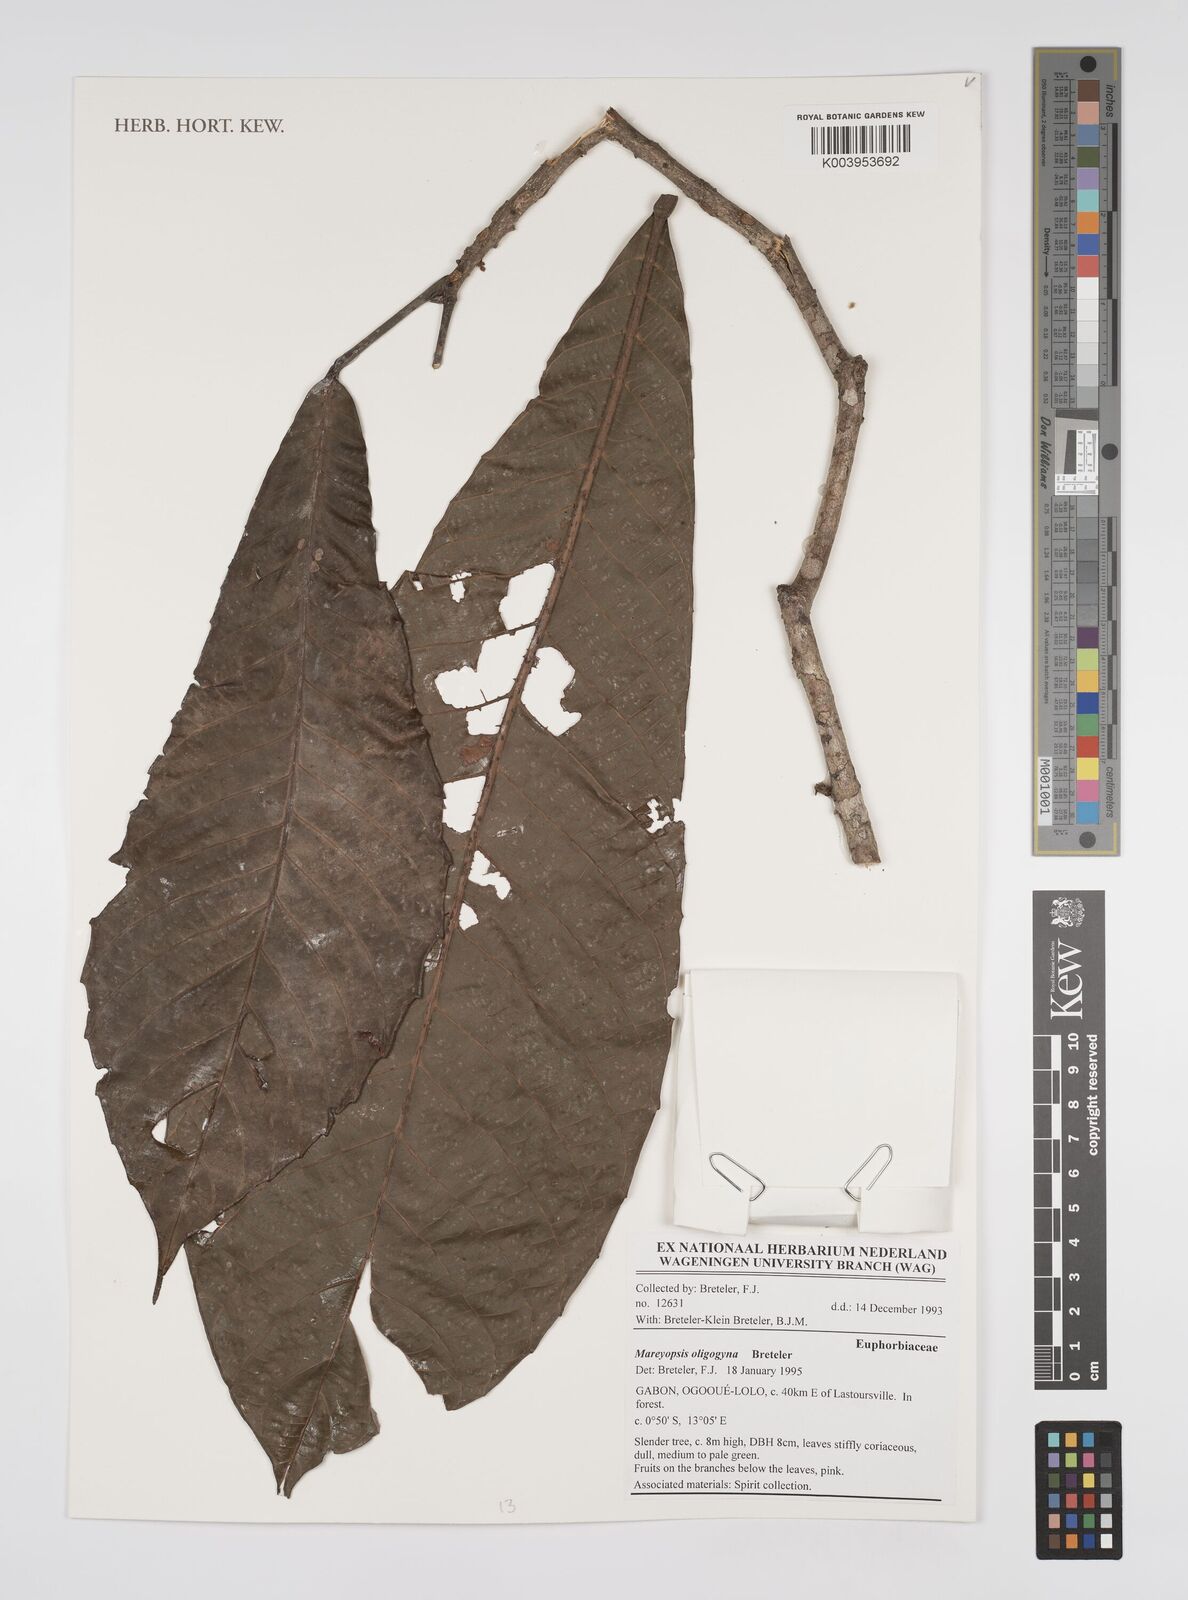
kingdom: Plantae
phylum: Tracheophyta
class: Magnoliopsida
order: Malpighiales
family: Euphorbiaceae
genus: Mareyopsis
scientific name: Mareyopsis oligogyna
